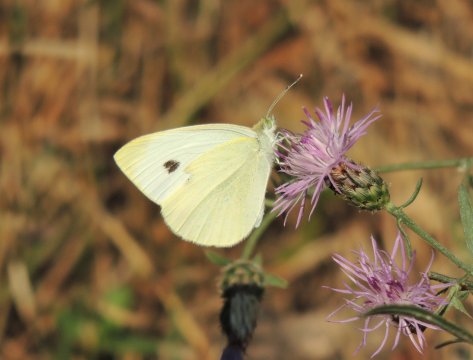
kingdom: Animalia
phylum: Arthropoda
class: Insecta
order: Lepidoptera
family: Pieridae
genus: Pieris
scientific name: Pieris rapae
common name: Cabbage White
